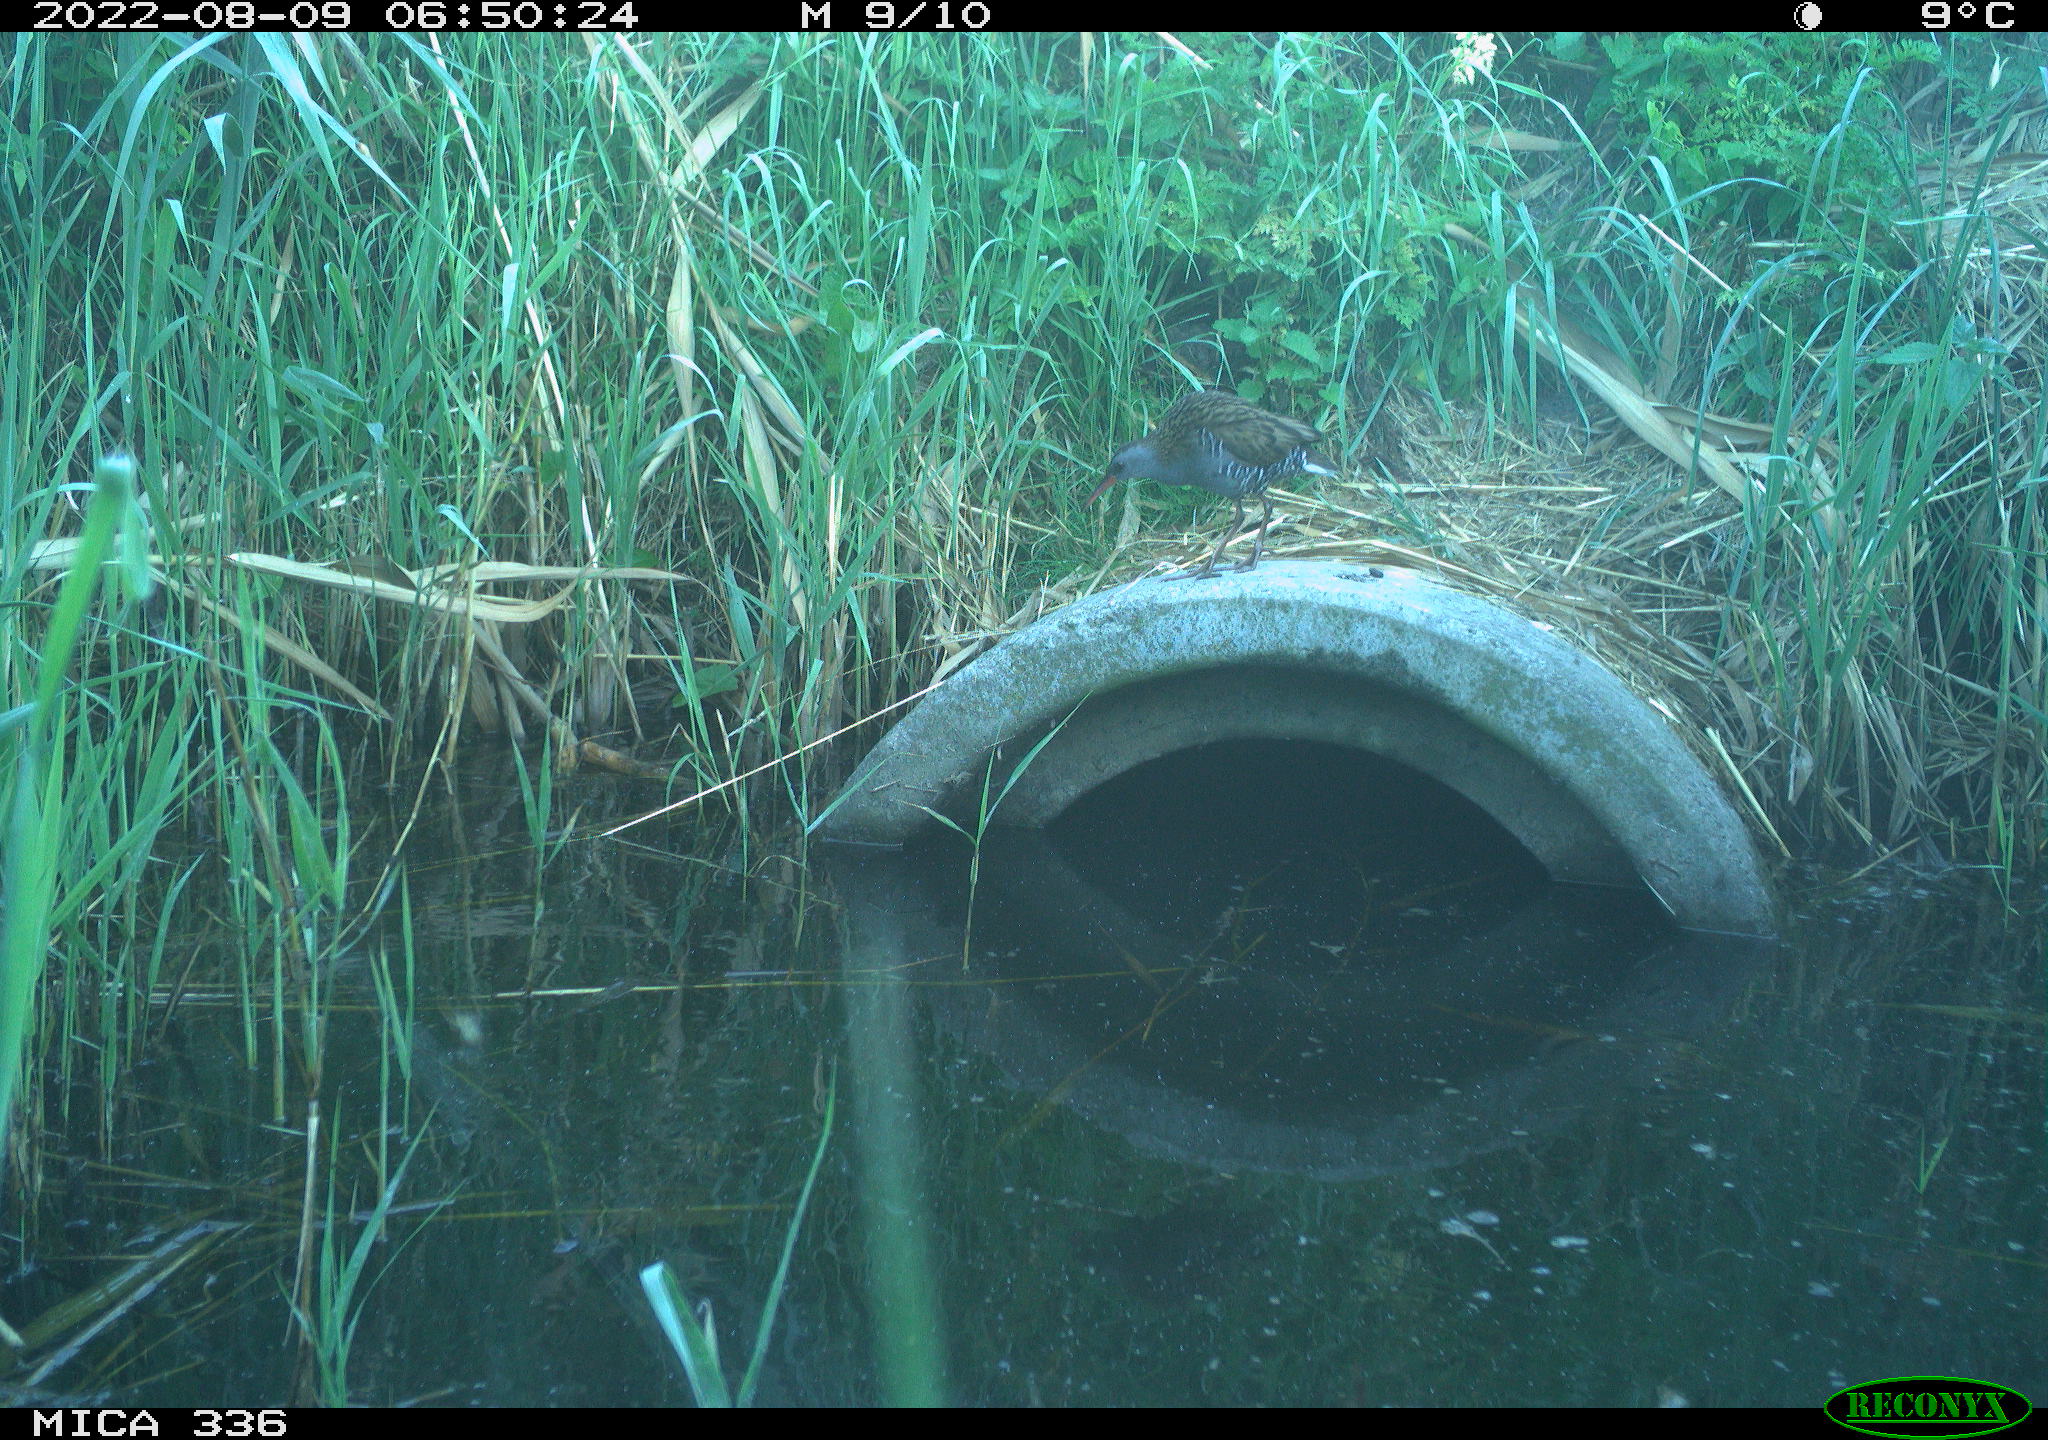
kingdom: Animalia
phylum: Chordata
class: Aves
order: Gruiformes
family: Rallidae
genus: Rallus
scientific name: Rallus aquaticus
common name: Water rail
